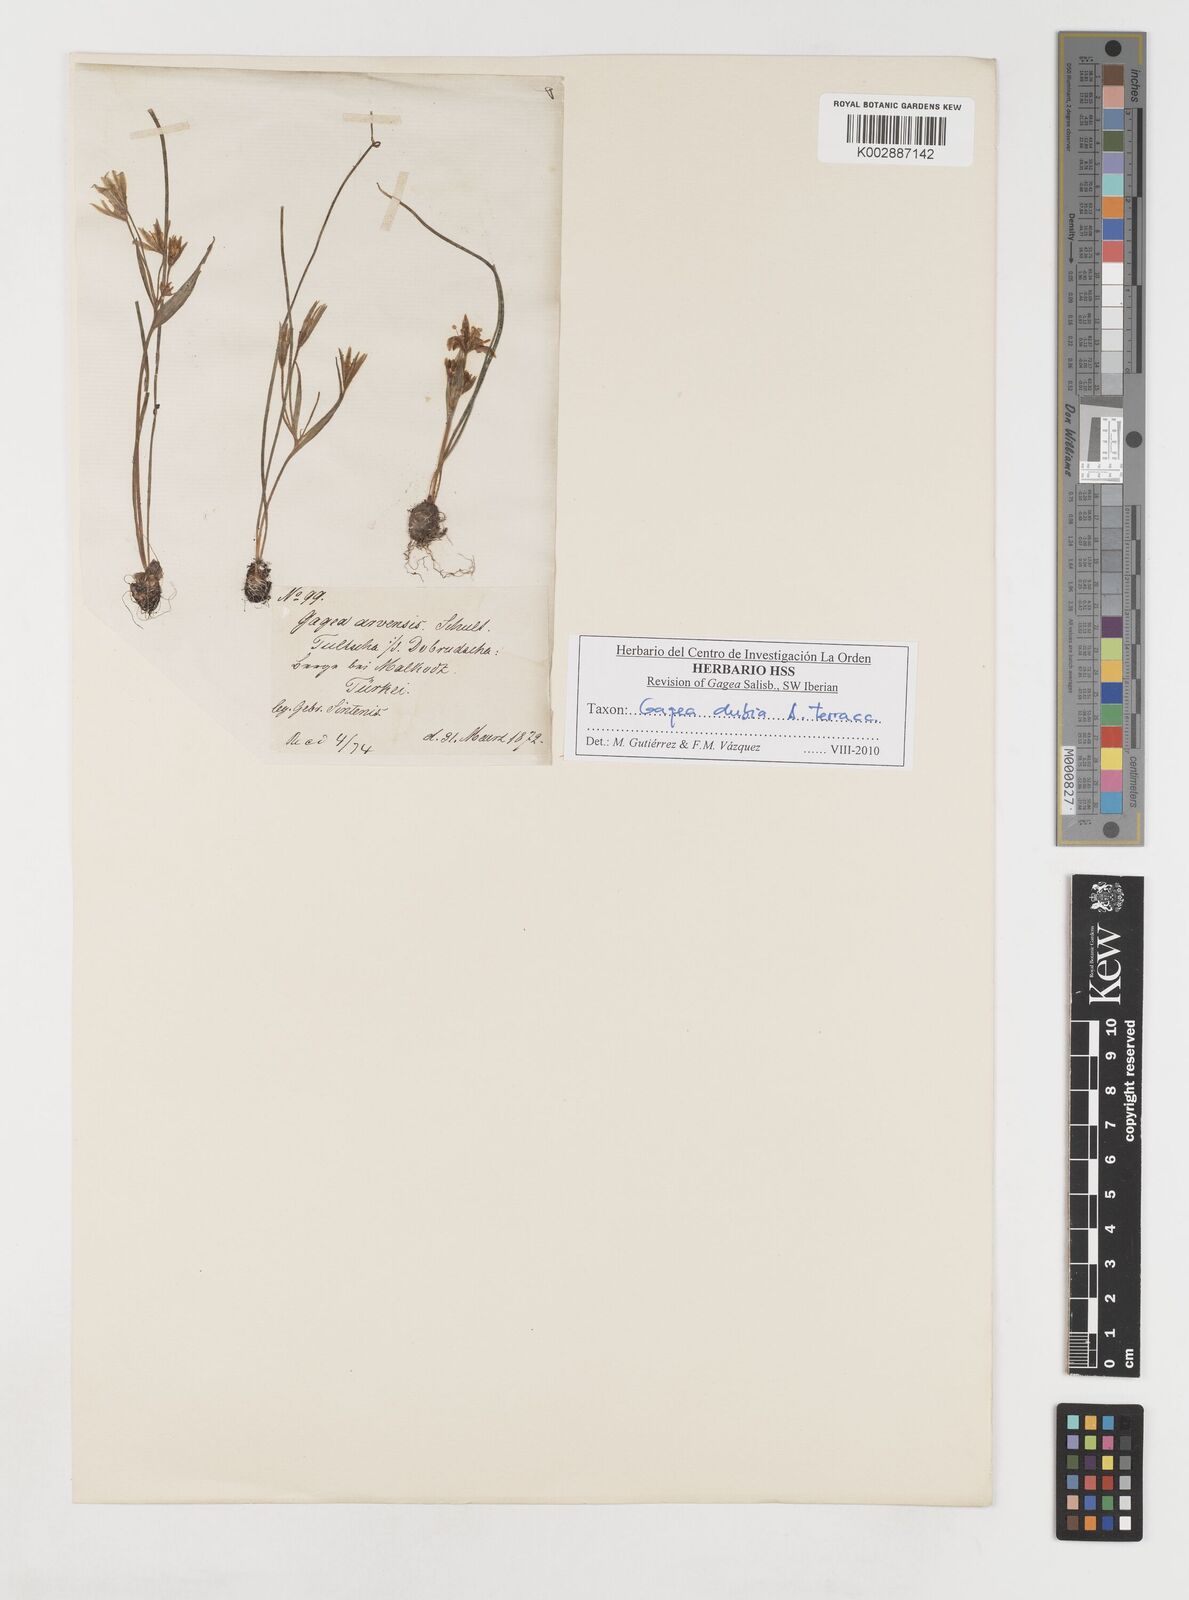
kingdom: Plantae
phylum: Tracheophyta
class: Liliopsida
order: Liliales
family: Liliaceae
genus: Gagea
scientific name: Gagea dubia
